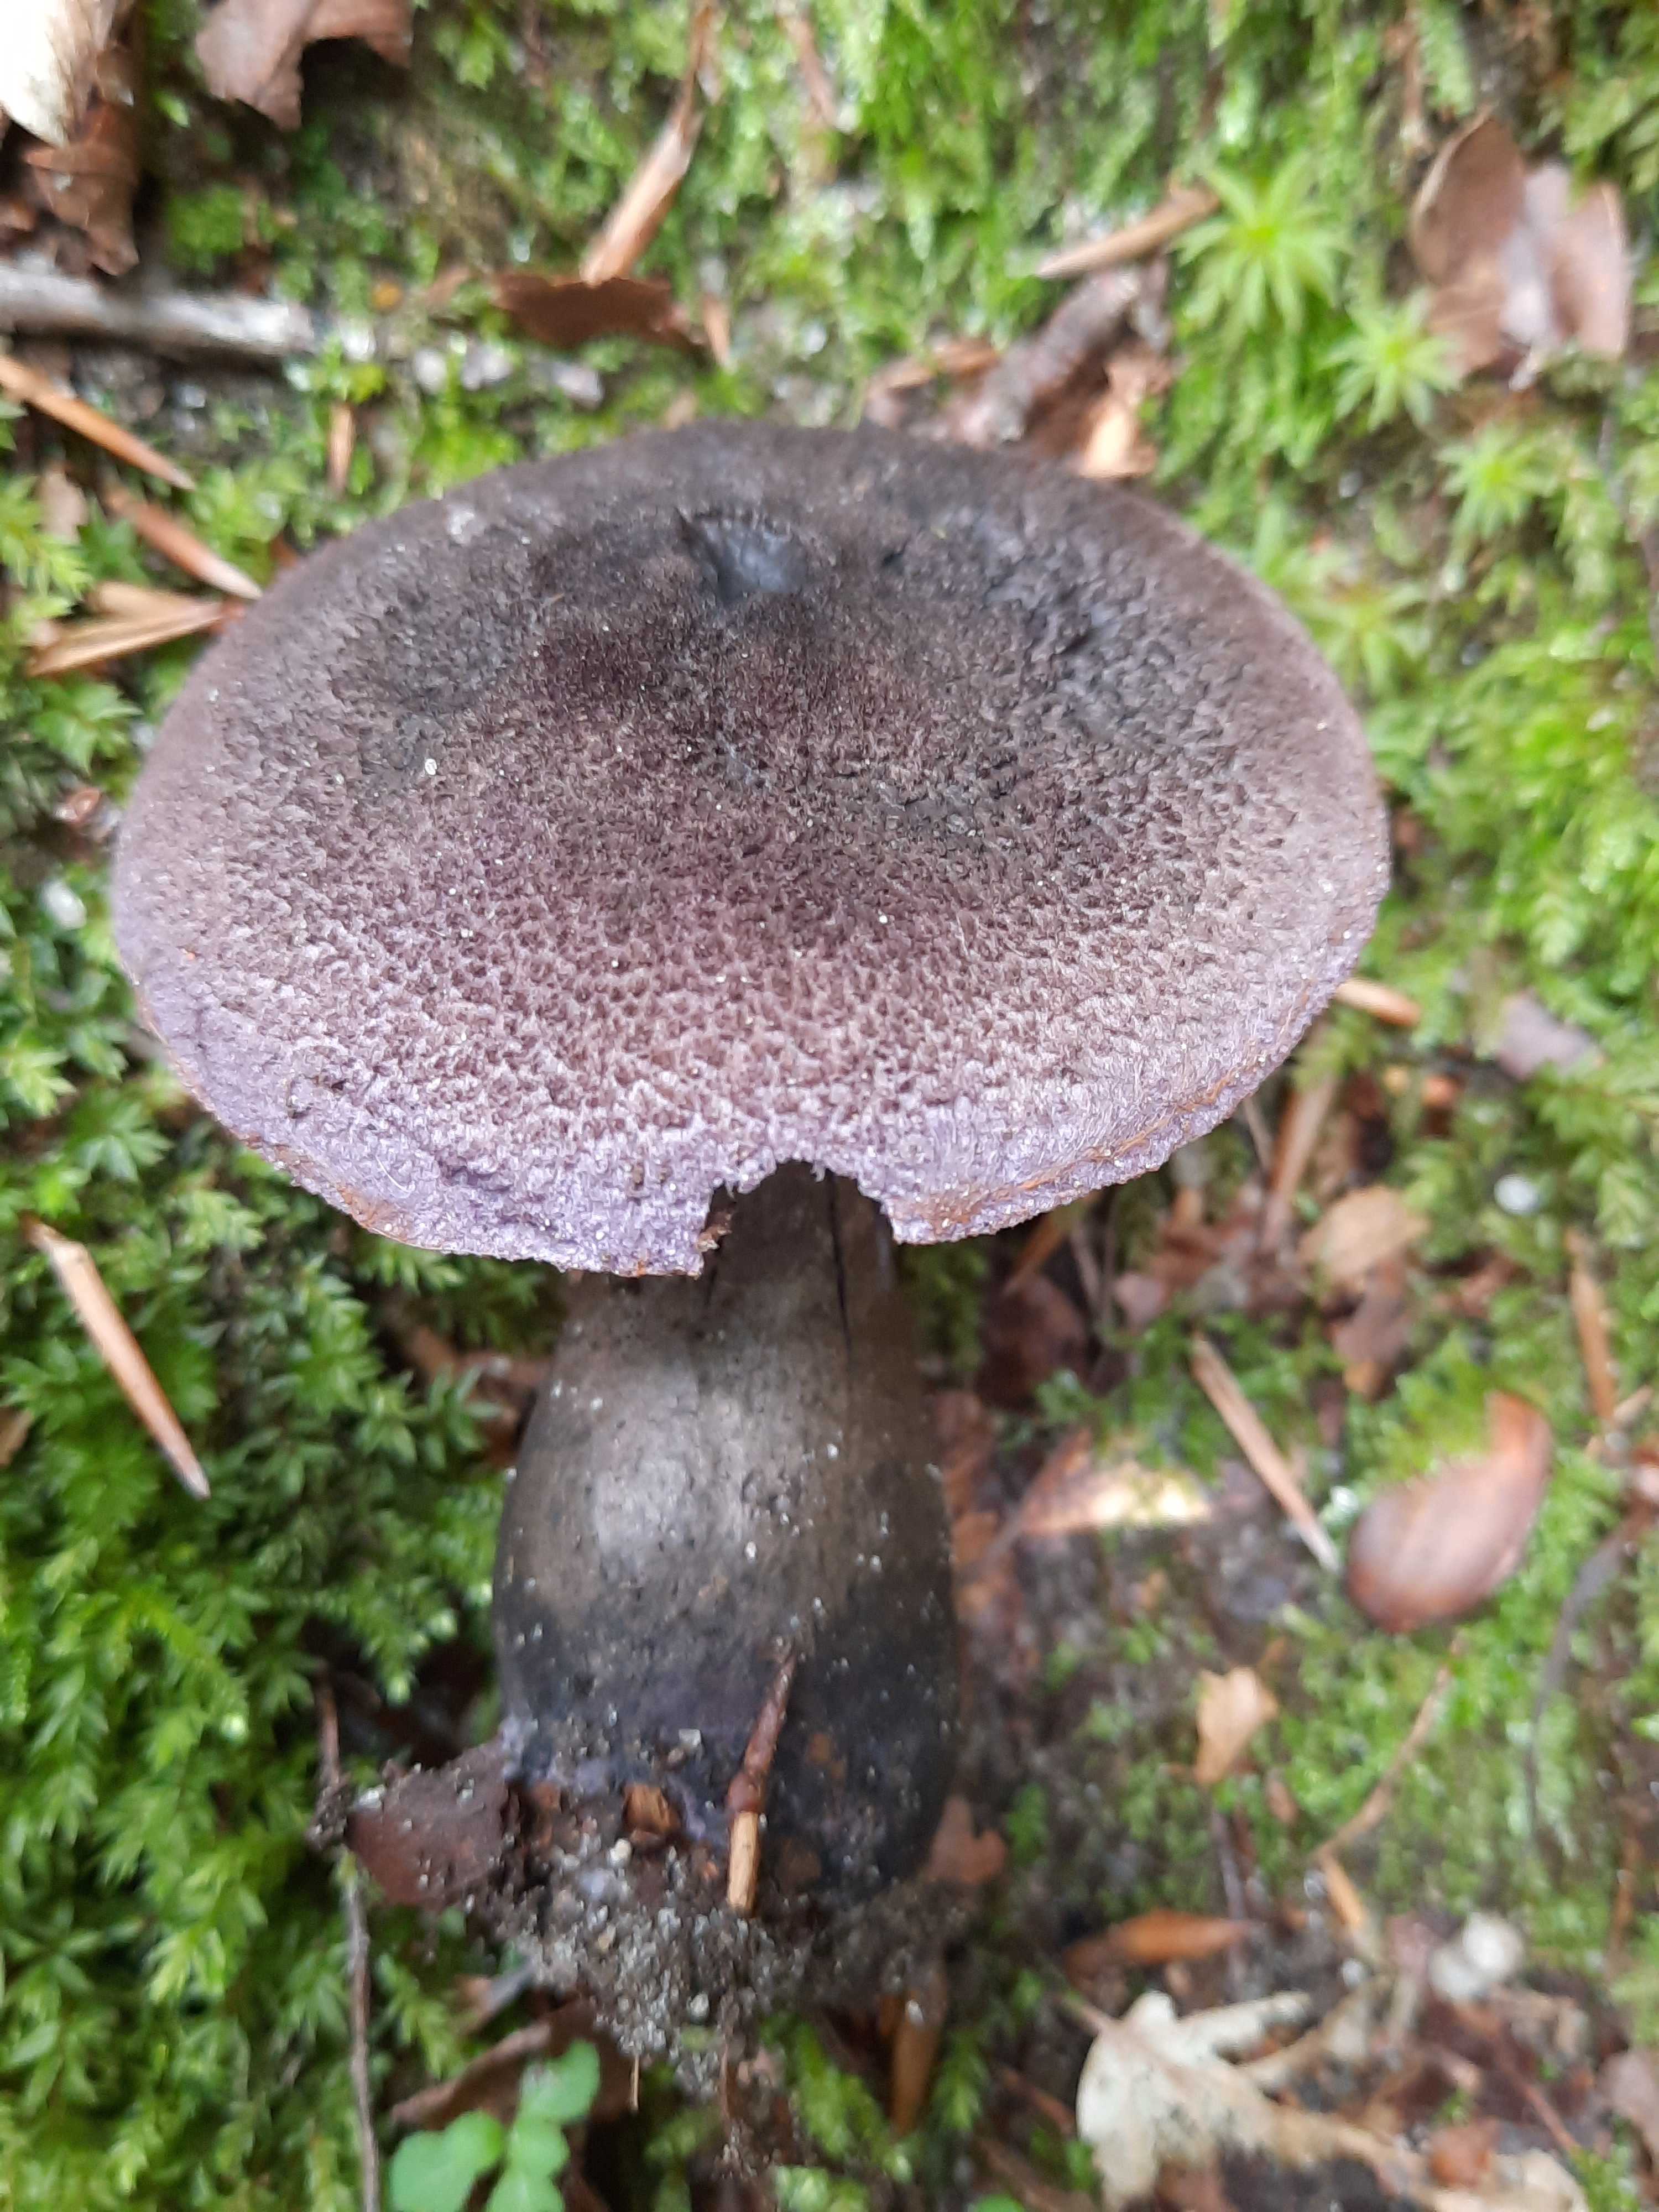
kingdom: Fungi
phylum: Basidiomycota
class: Agaricomycetes
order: Agaricales
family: Cortinariaceae
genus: Cortinarius
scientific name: Cortinarius violaceus
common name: mørkviolet slørhat
